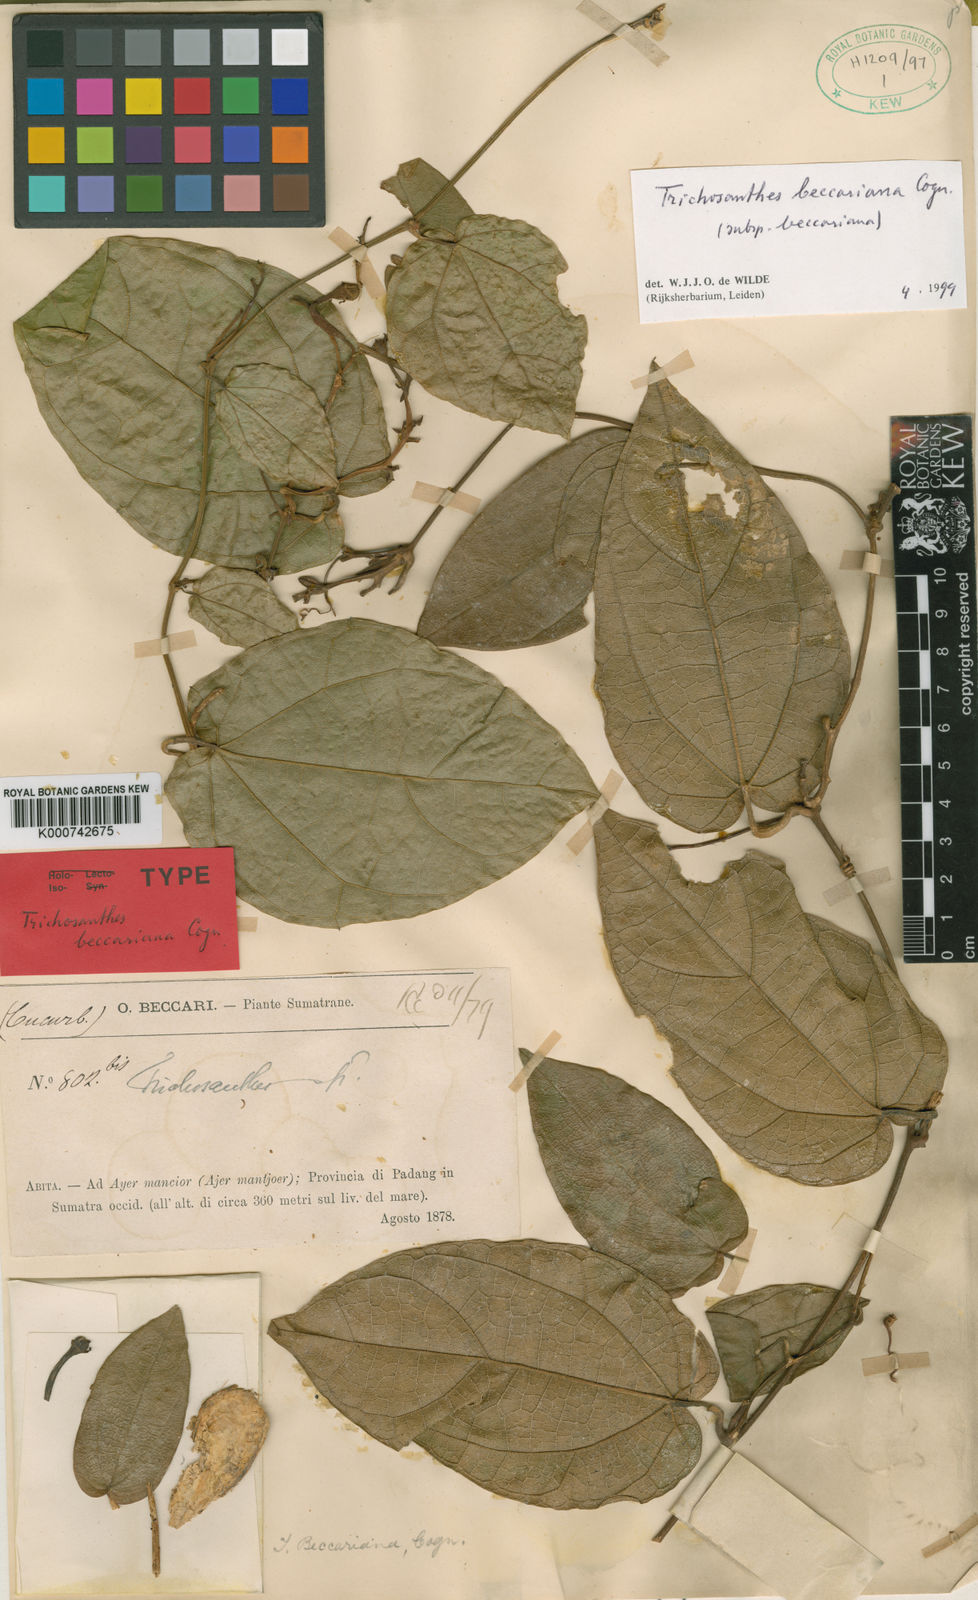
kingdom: Plantae
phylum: Tracheophyta
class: Magnoliopsida
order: Cucurbitales
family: Cucurbitaceae
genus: Trichosanthes
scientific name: Trichosanthes beccariana
